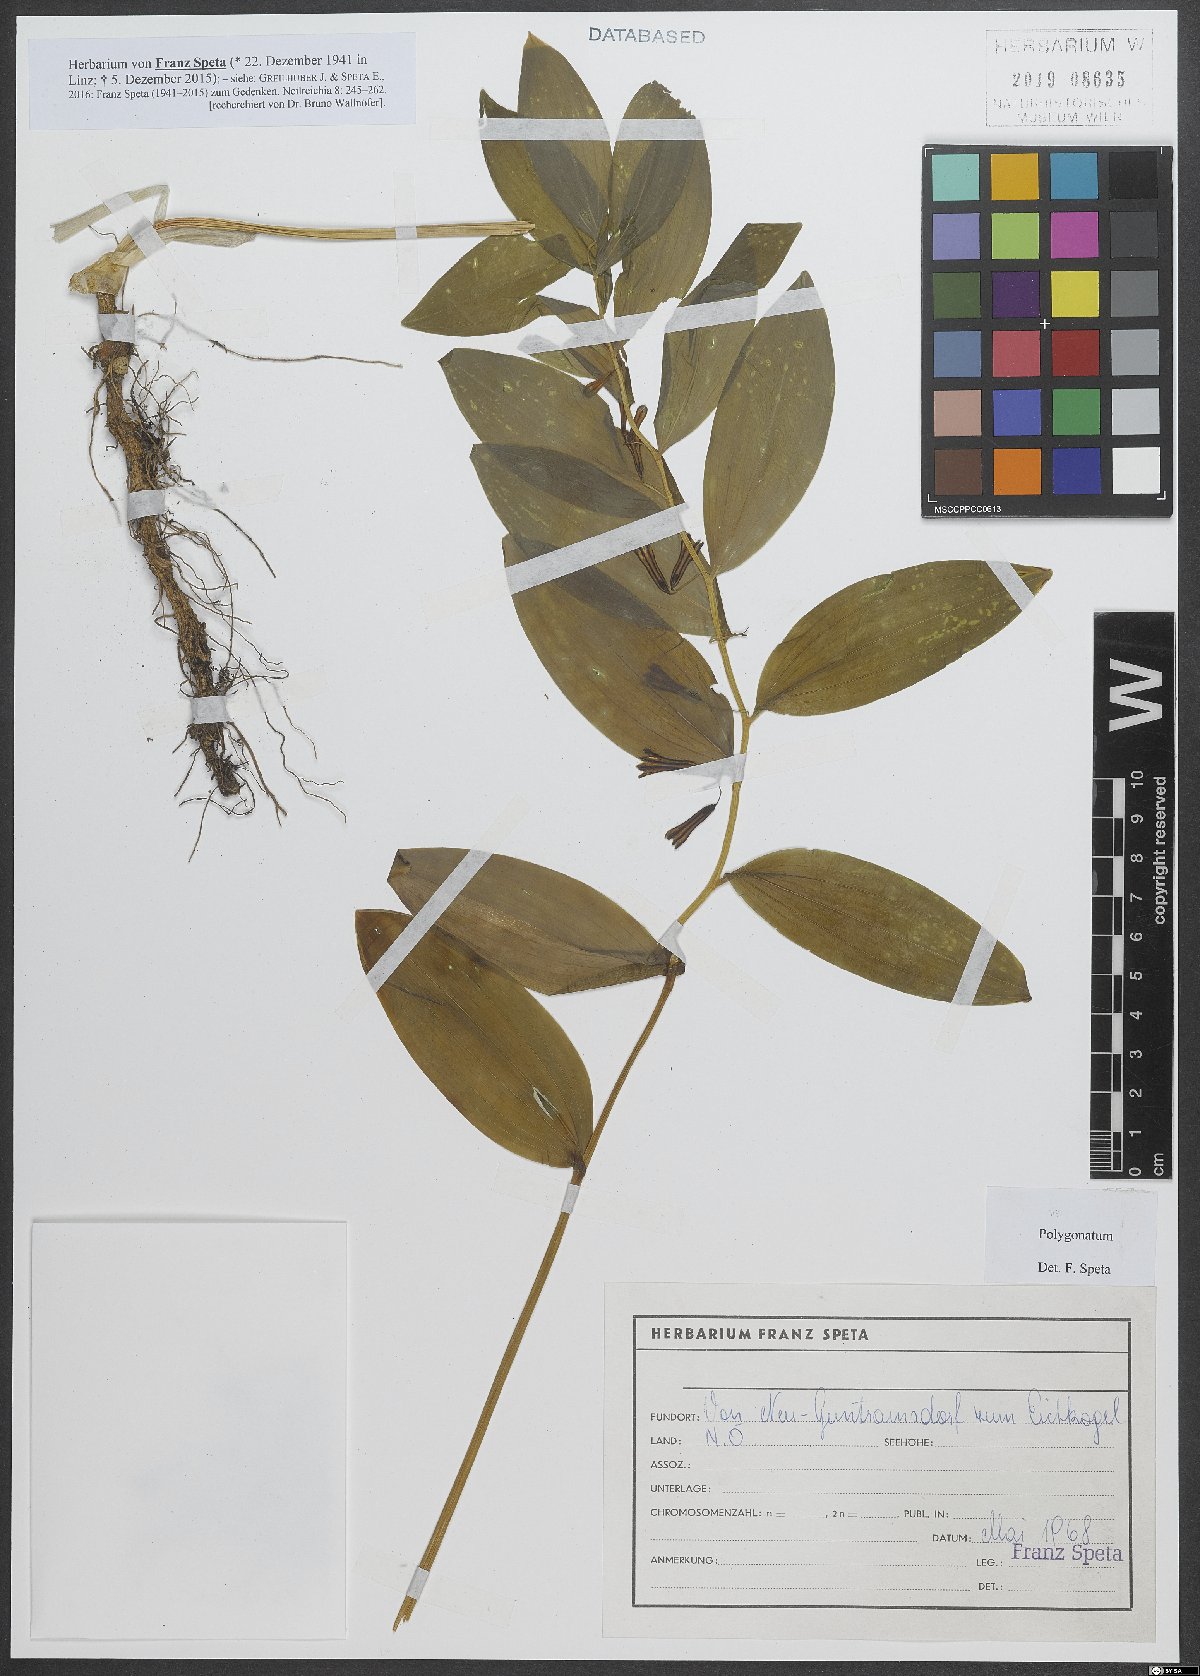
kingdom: Plantae
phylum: Tracheophyta
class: Liliopsida
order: Asparagales
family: Asparagaceae
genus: Polygonatum
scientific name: Polygonatum
